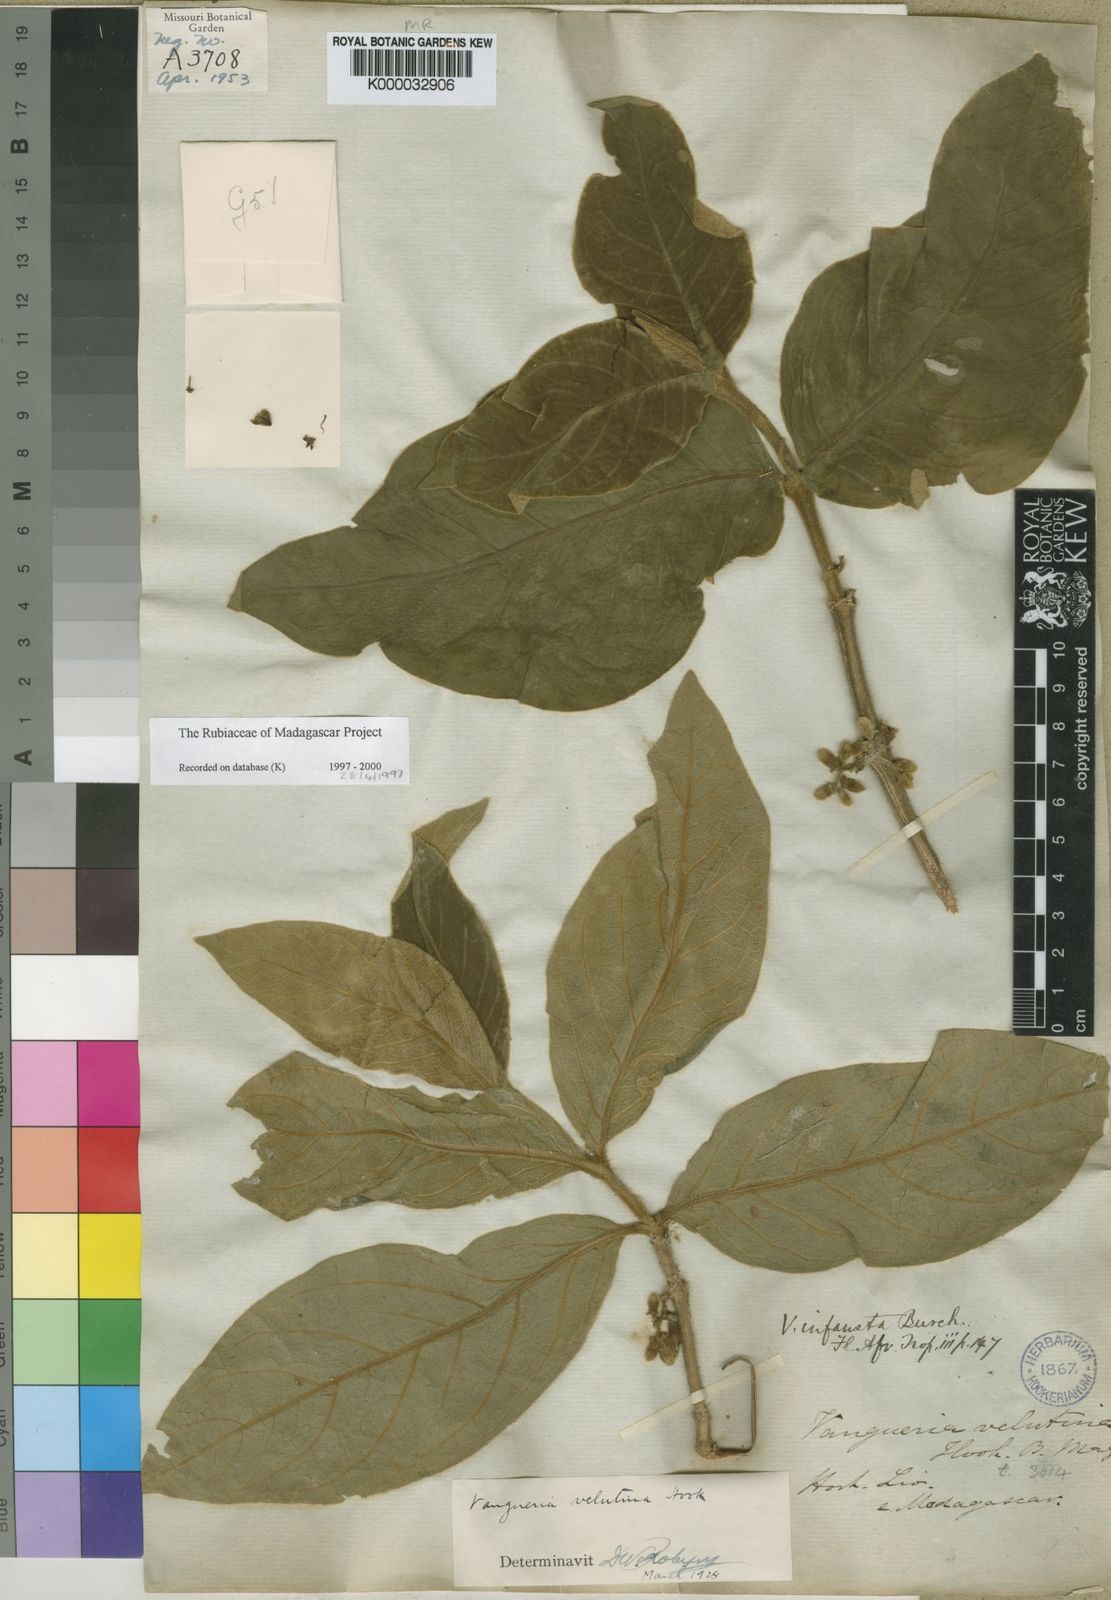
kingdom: Plantae
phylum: Tracheophyta
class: Magnoliopsida
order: Gentianales
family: Rubiaceae
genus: Vangueria
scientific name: Vangueria infausta
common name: Medlar
